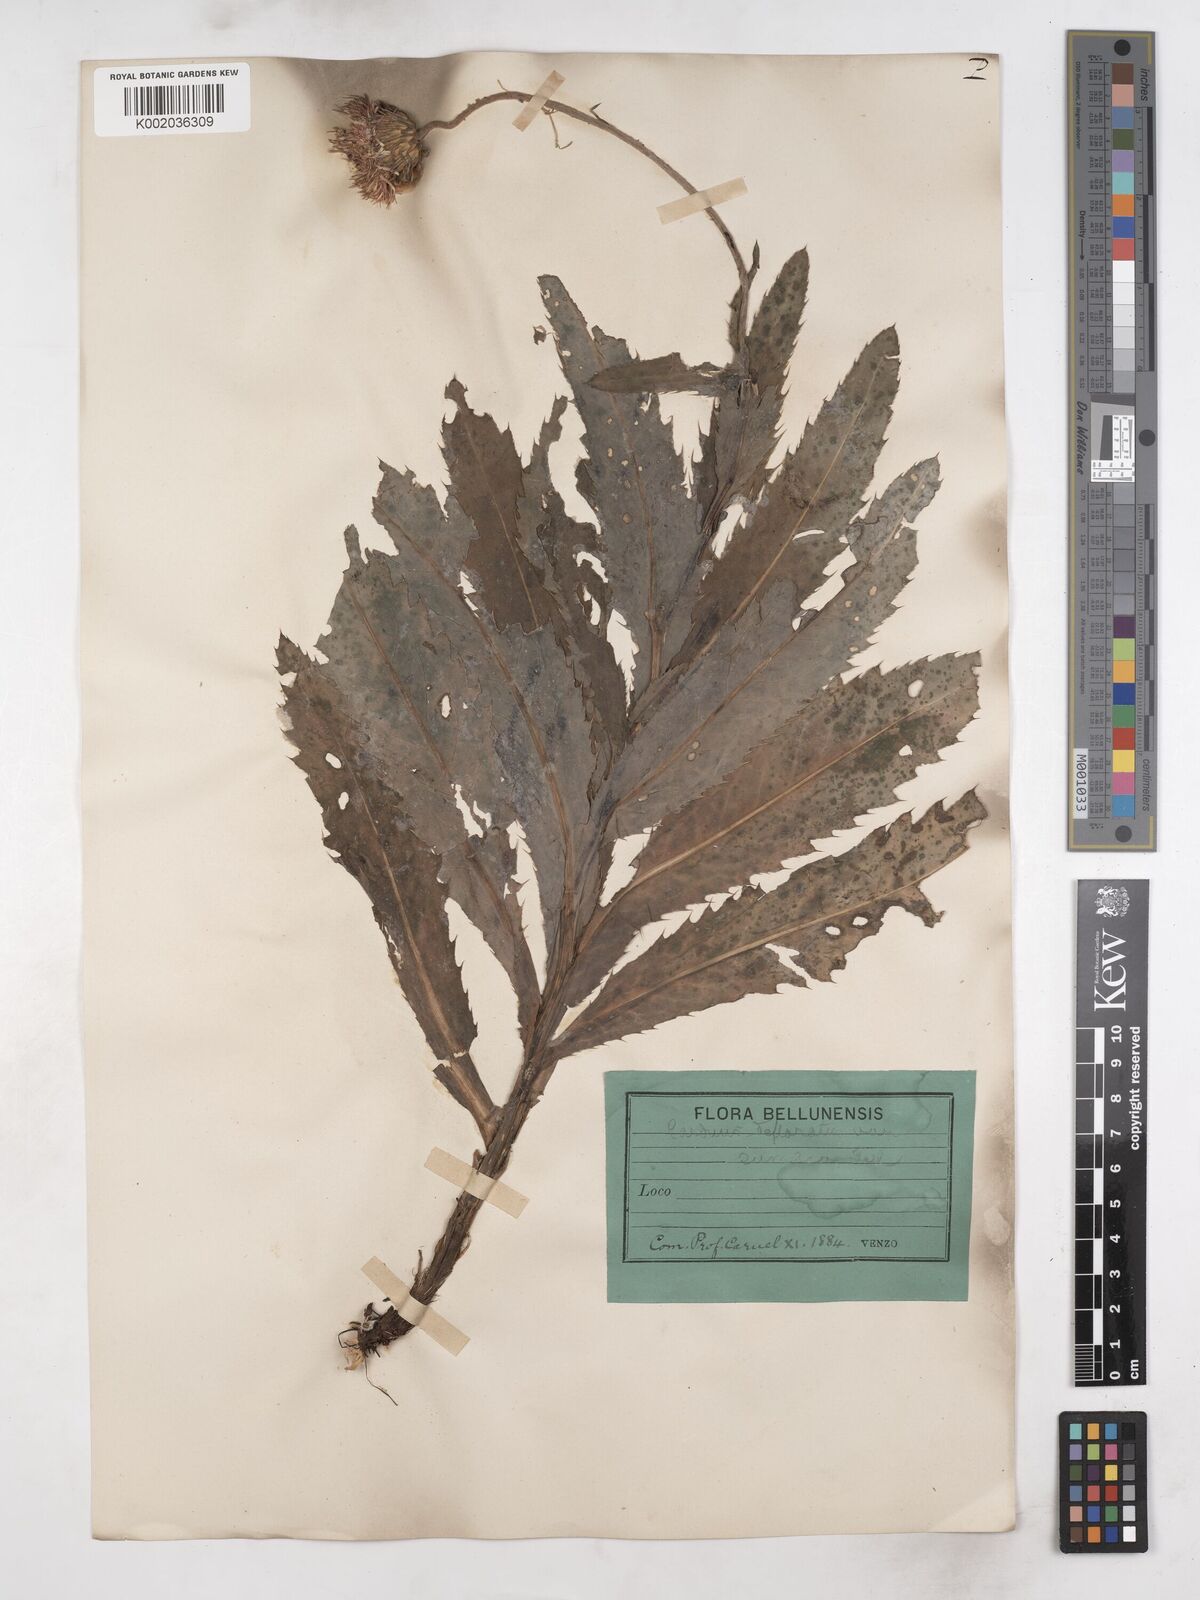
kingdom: Plantae
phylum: Tracheophyta
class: Magnoliopsida
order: Asterales
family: Asteraceae
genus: Carduus
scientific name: Carduus defloratus
